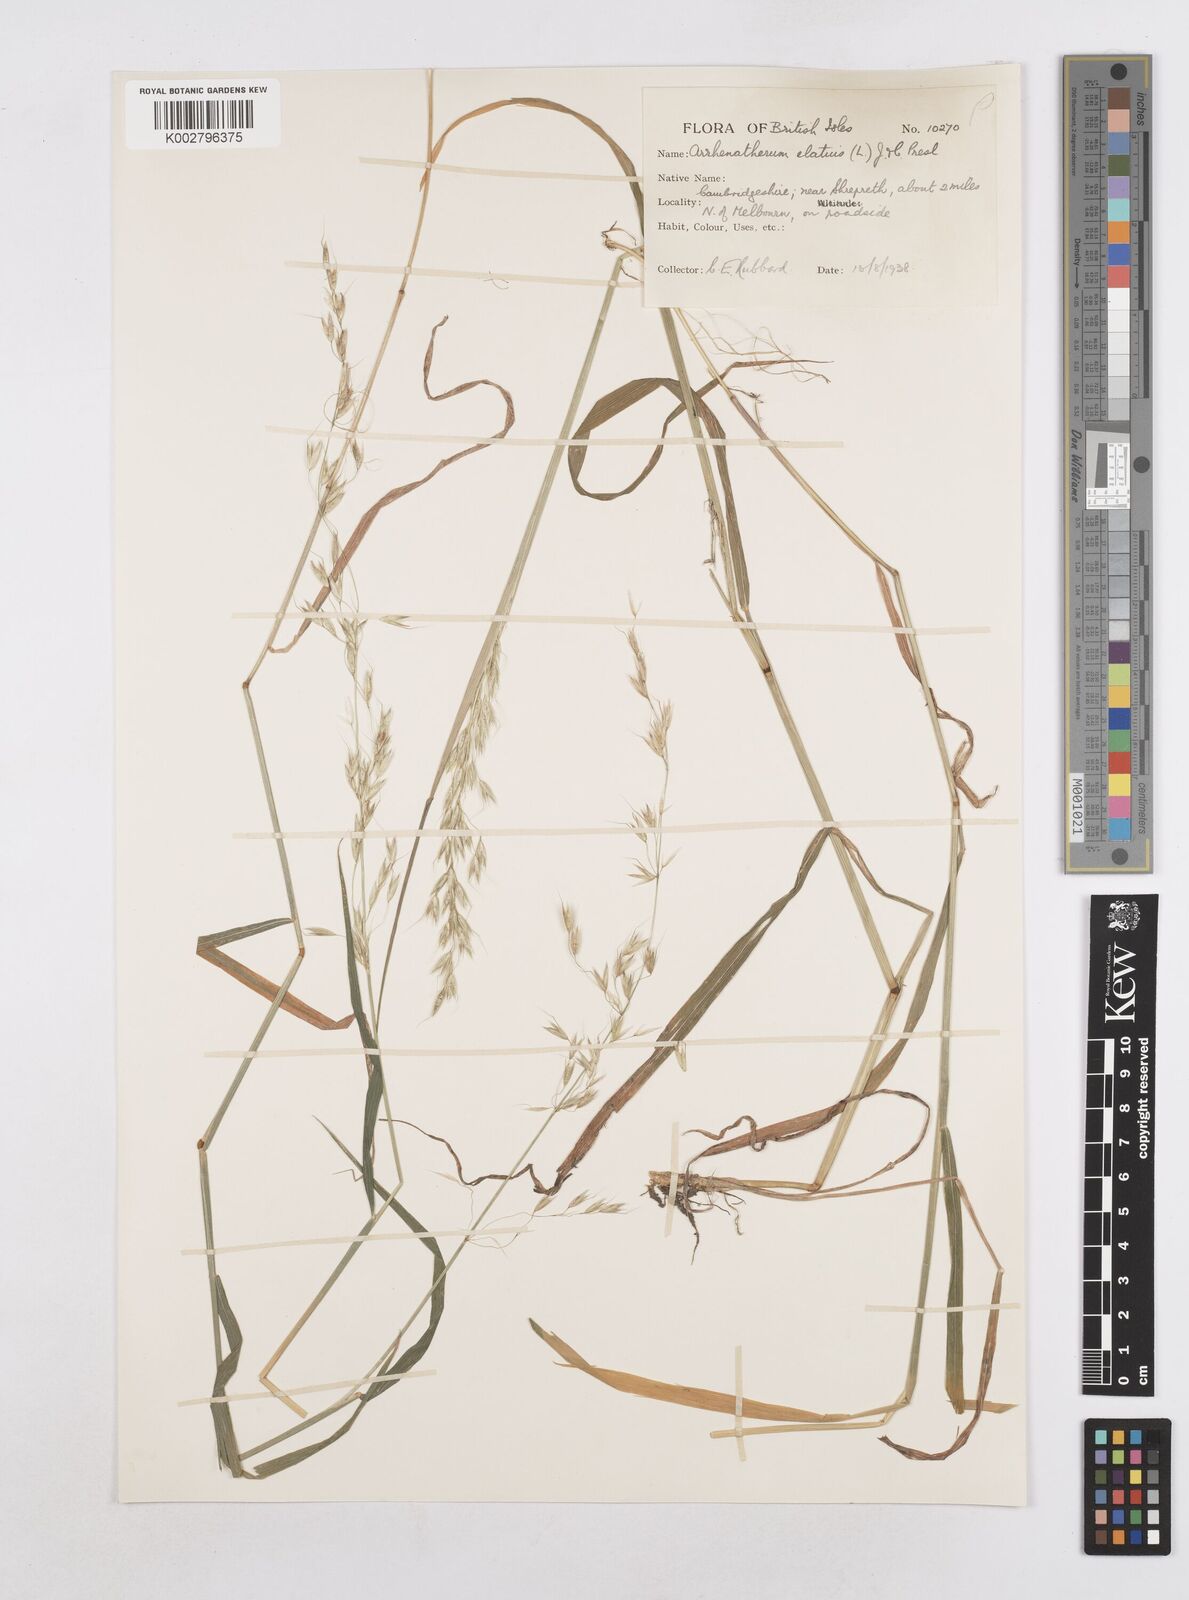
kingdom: Plantae
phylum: Tracheophyta
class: Liliopsida
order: Poales
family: Poaceae
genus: Arrhenatherum
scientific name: Arrhenatherum elatius
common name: Tall oatgrass
